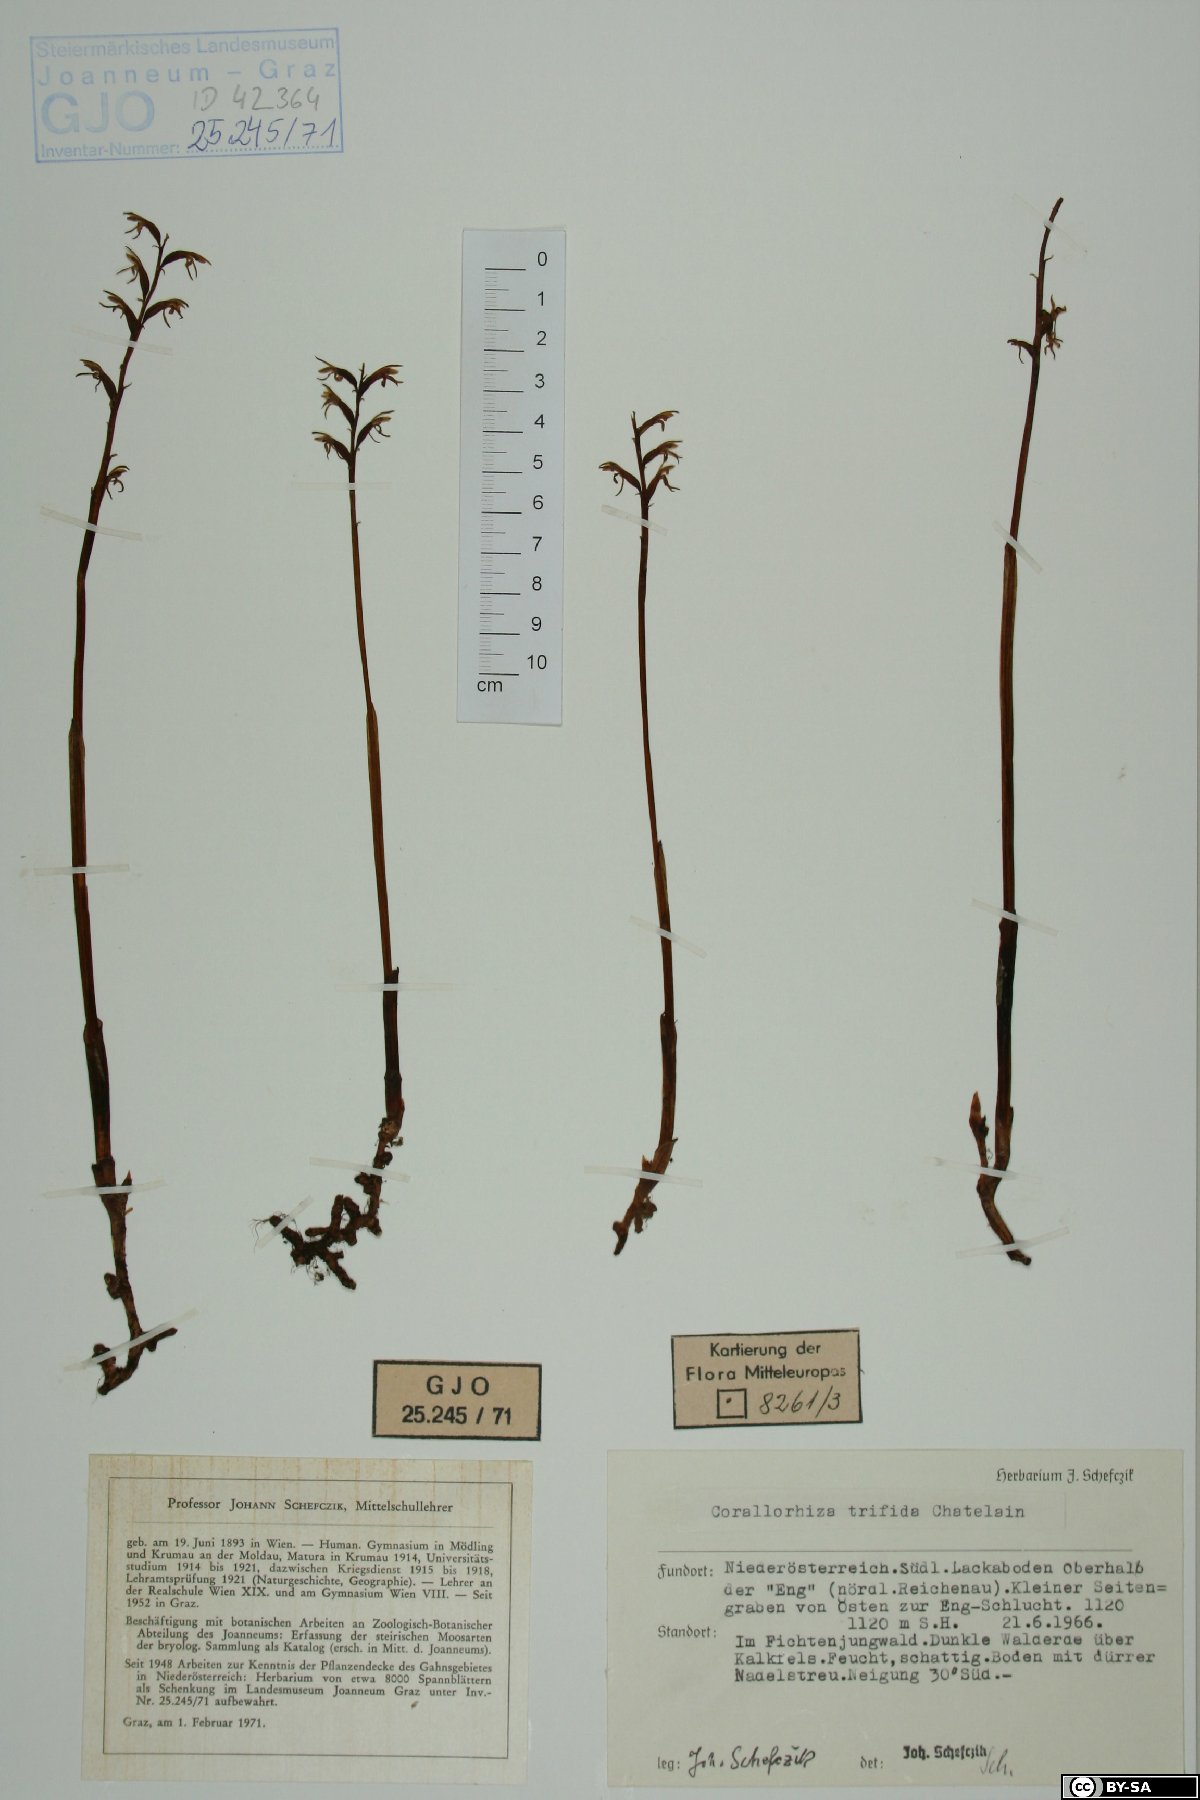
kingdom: Plantae
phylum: Tracheophyta
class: Liliopsida
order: Asparagales
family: Orchidaceae
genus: Corallorhiza
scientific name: Corallorhiza trifida
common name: Yellow coralroot
